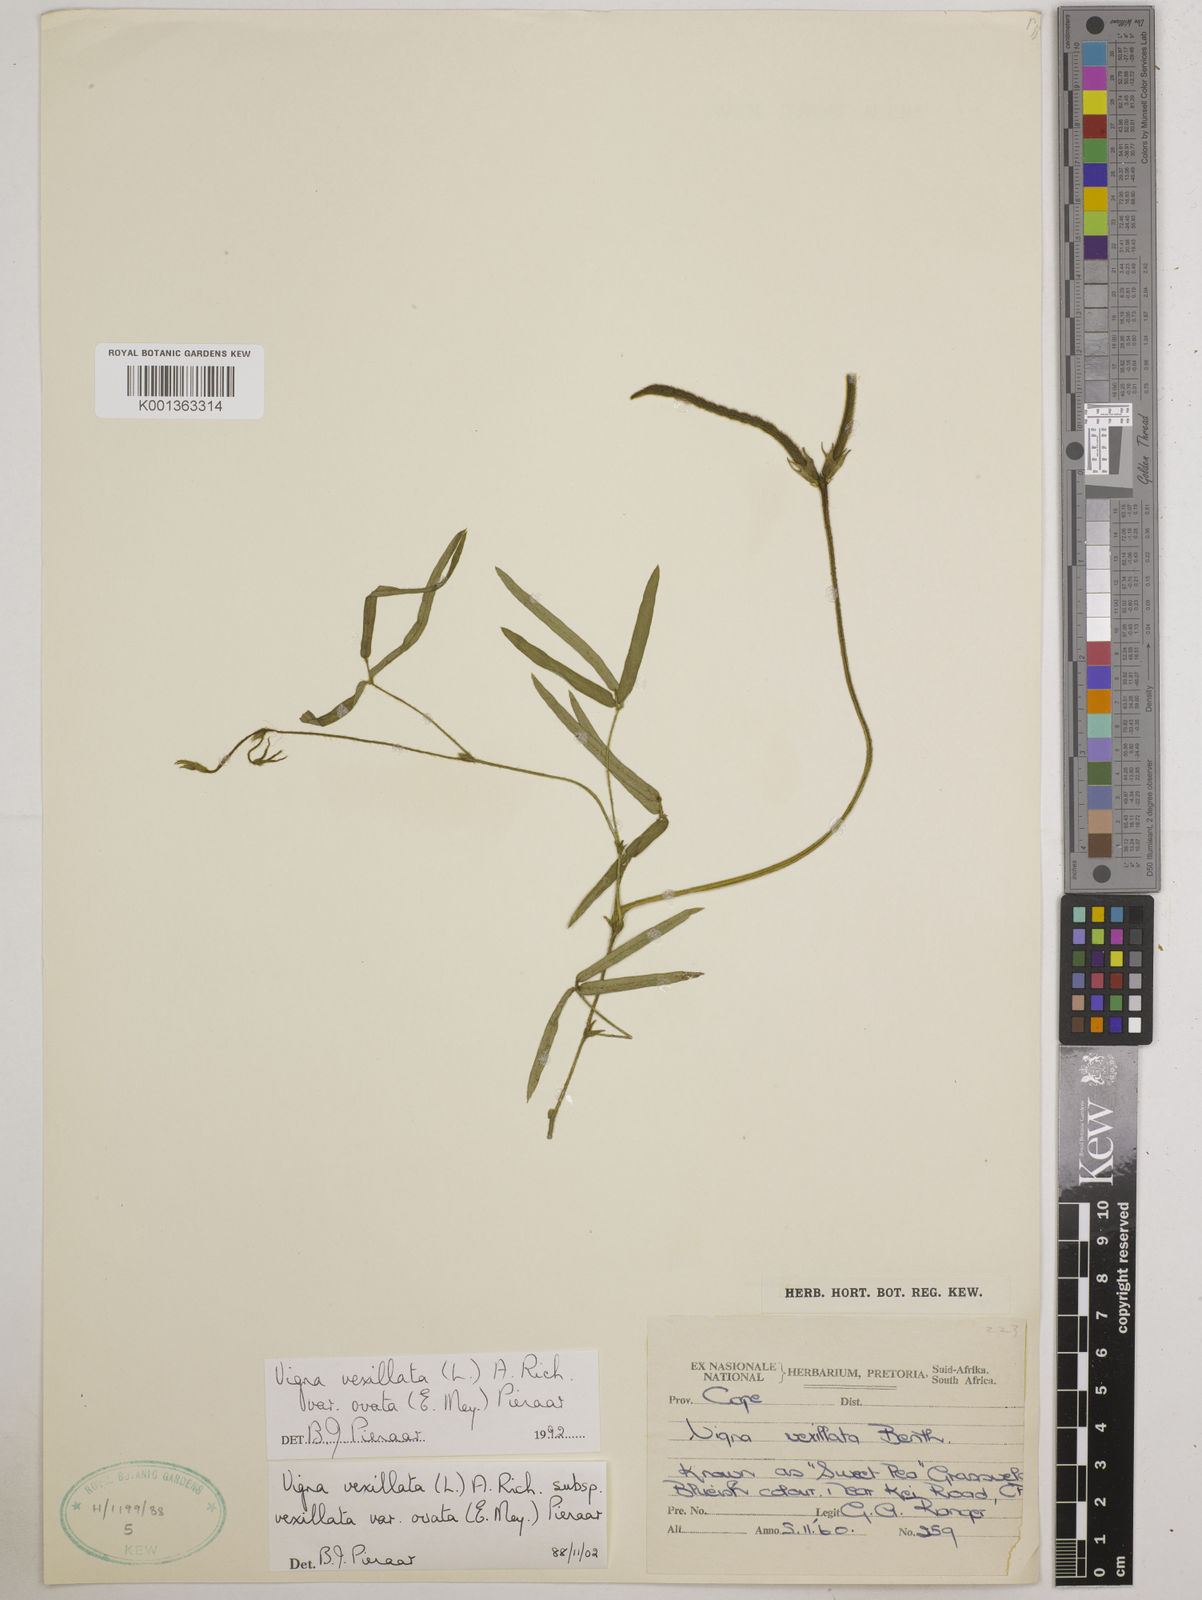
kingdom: Plantae
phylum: Tracheophyta
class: Magnoliopsida
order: Fabales
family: Fabaceae
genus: Vigna
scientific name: Vigna
